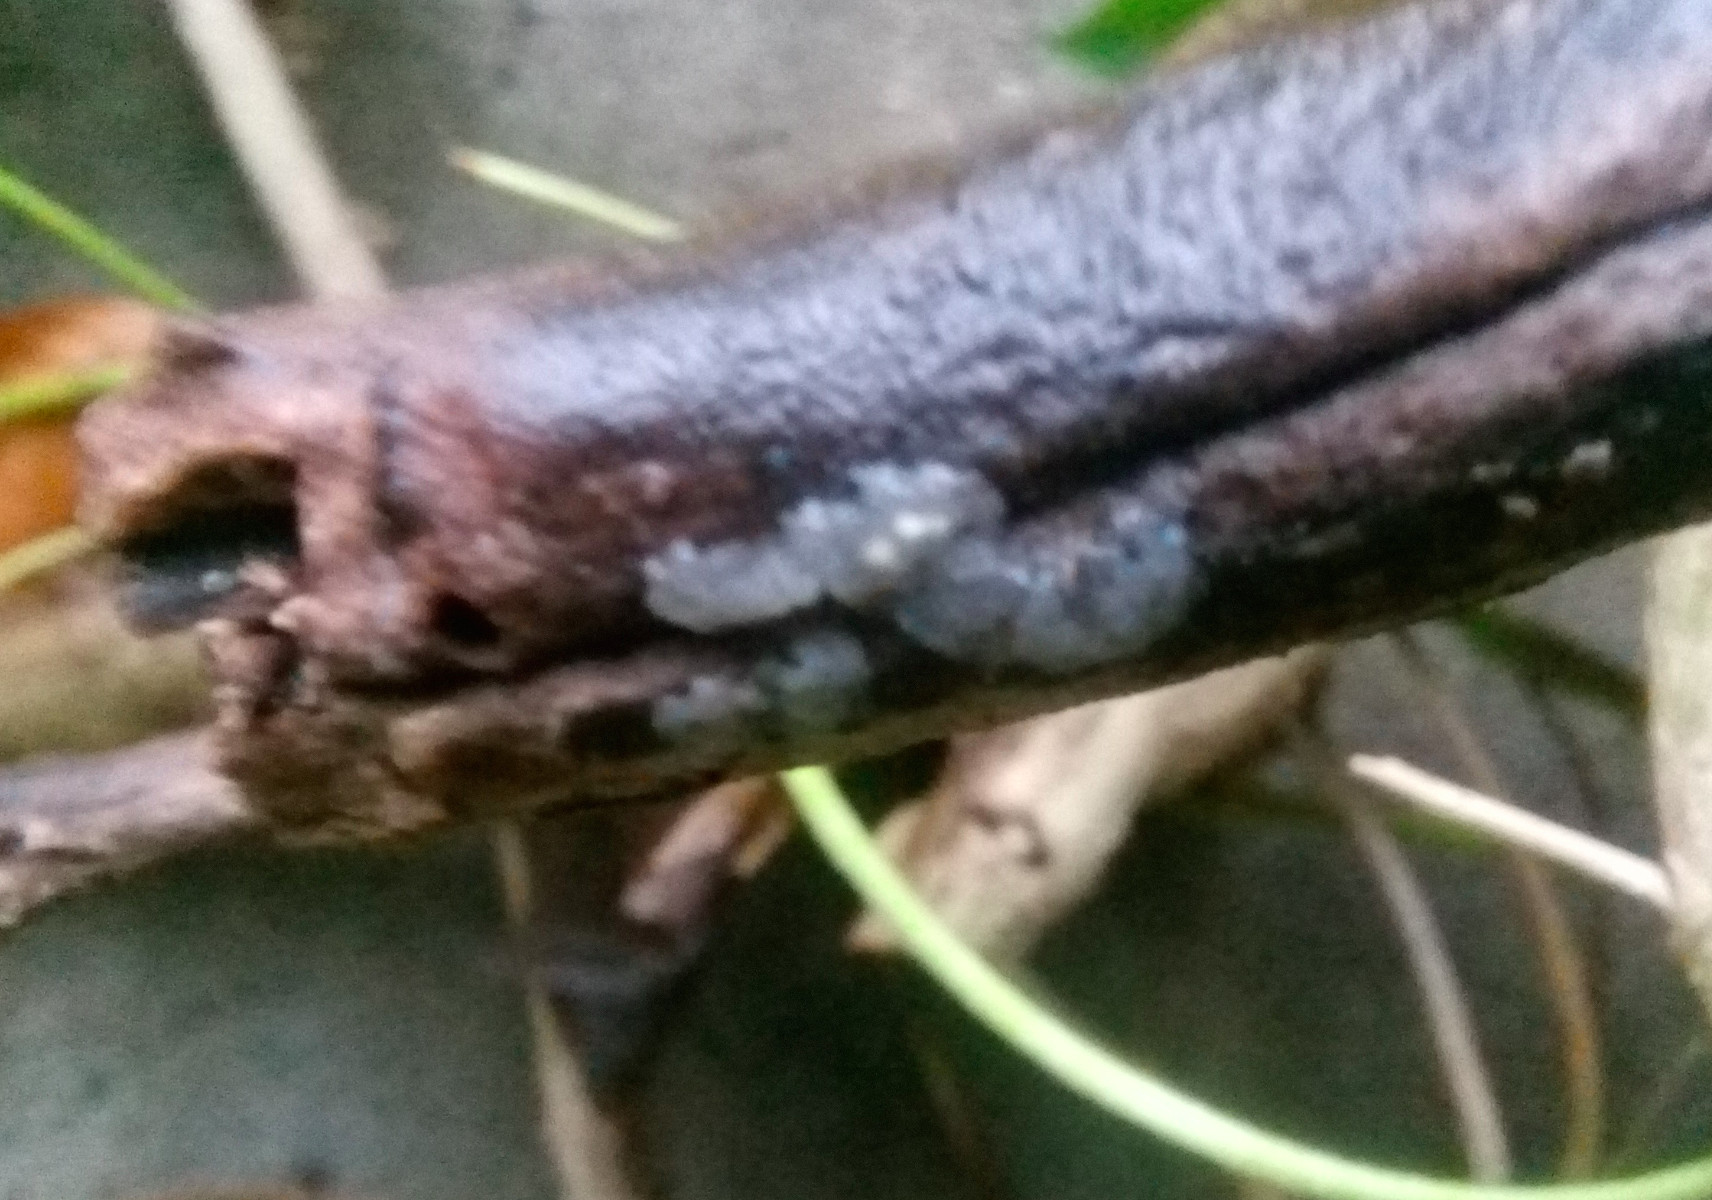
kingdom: Fungi
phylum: Basidiomycota
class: Agaricomycetes
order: Auriculariales
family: Hyaloriaceae
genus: Myxarium
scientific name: Myxarium nucleatum
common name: klar bævretop
